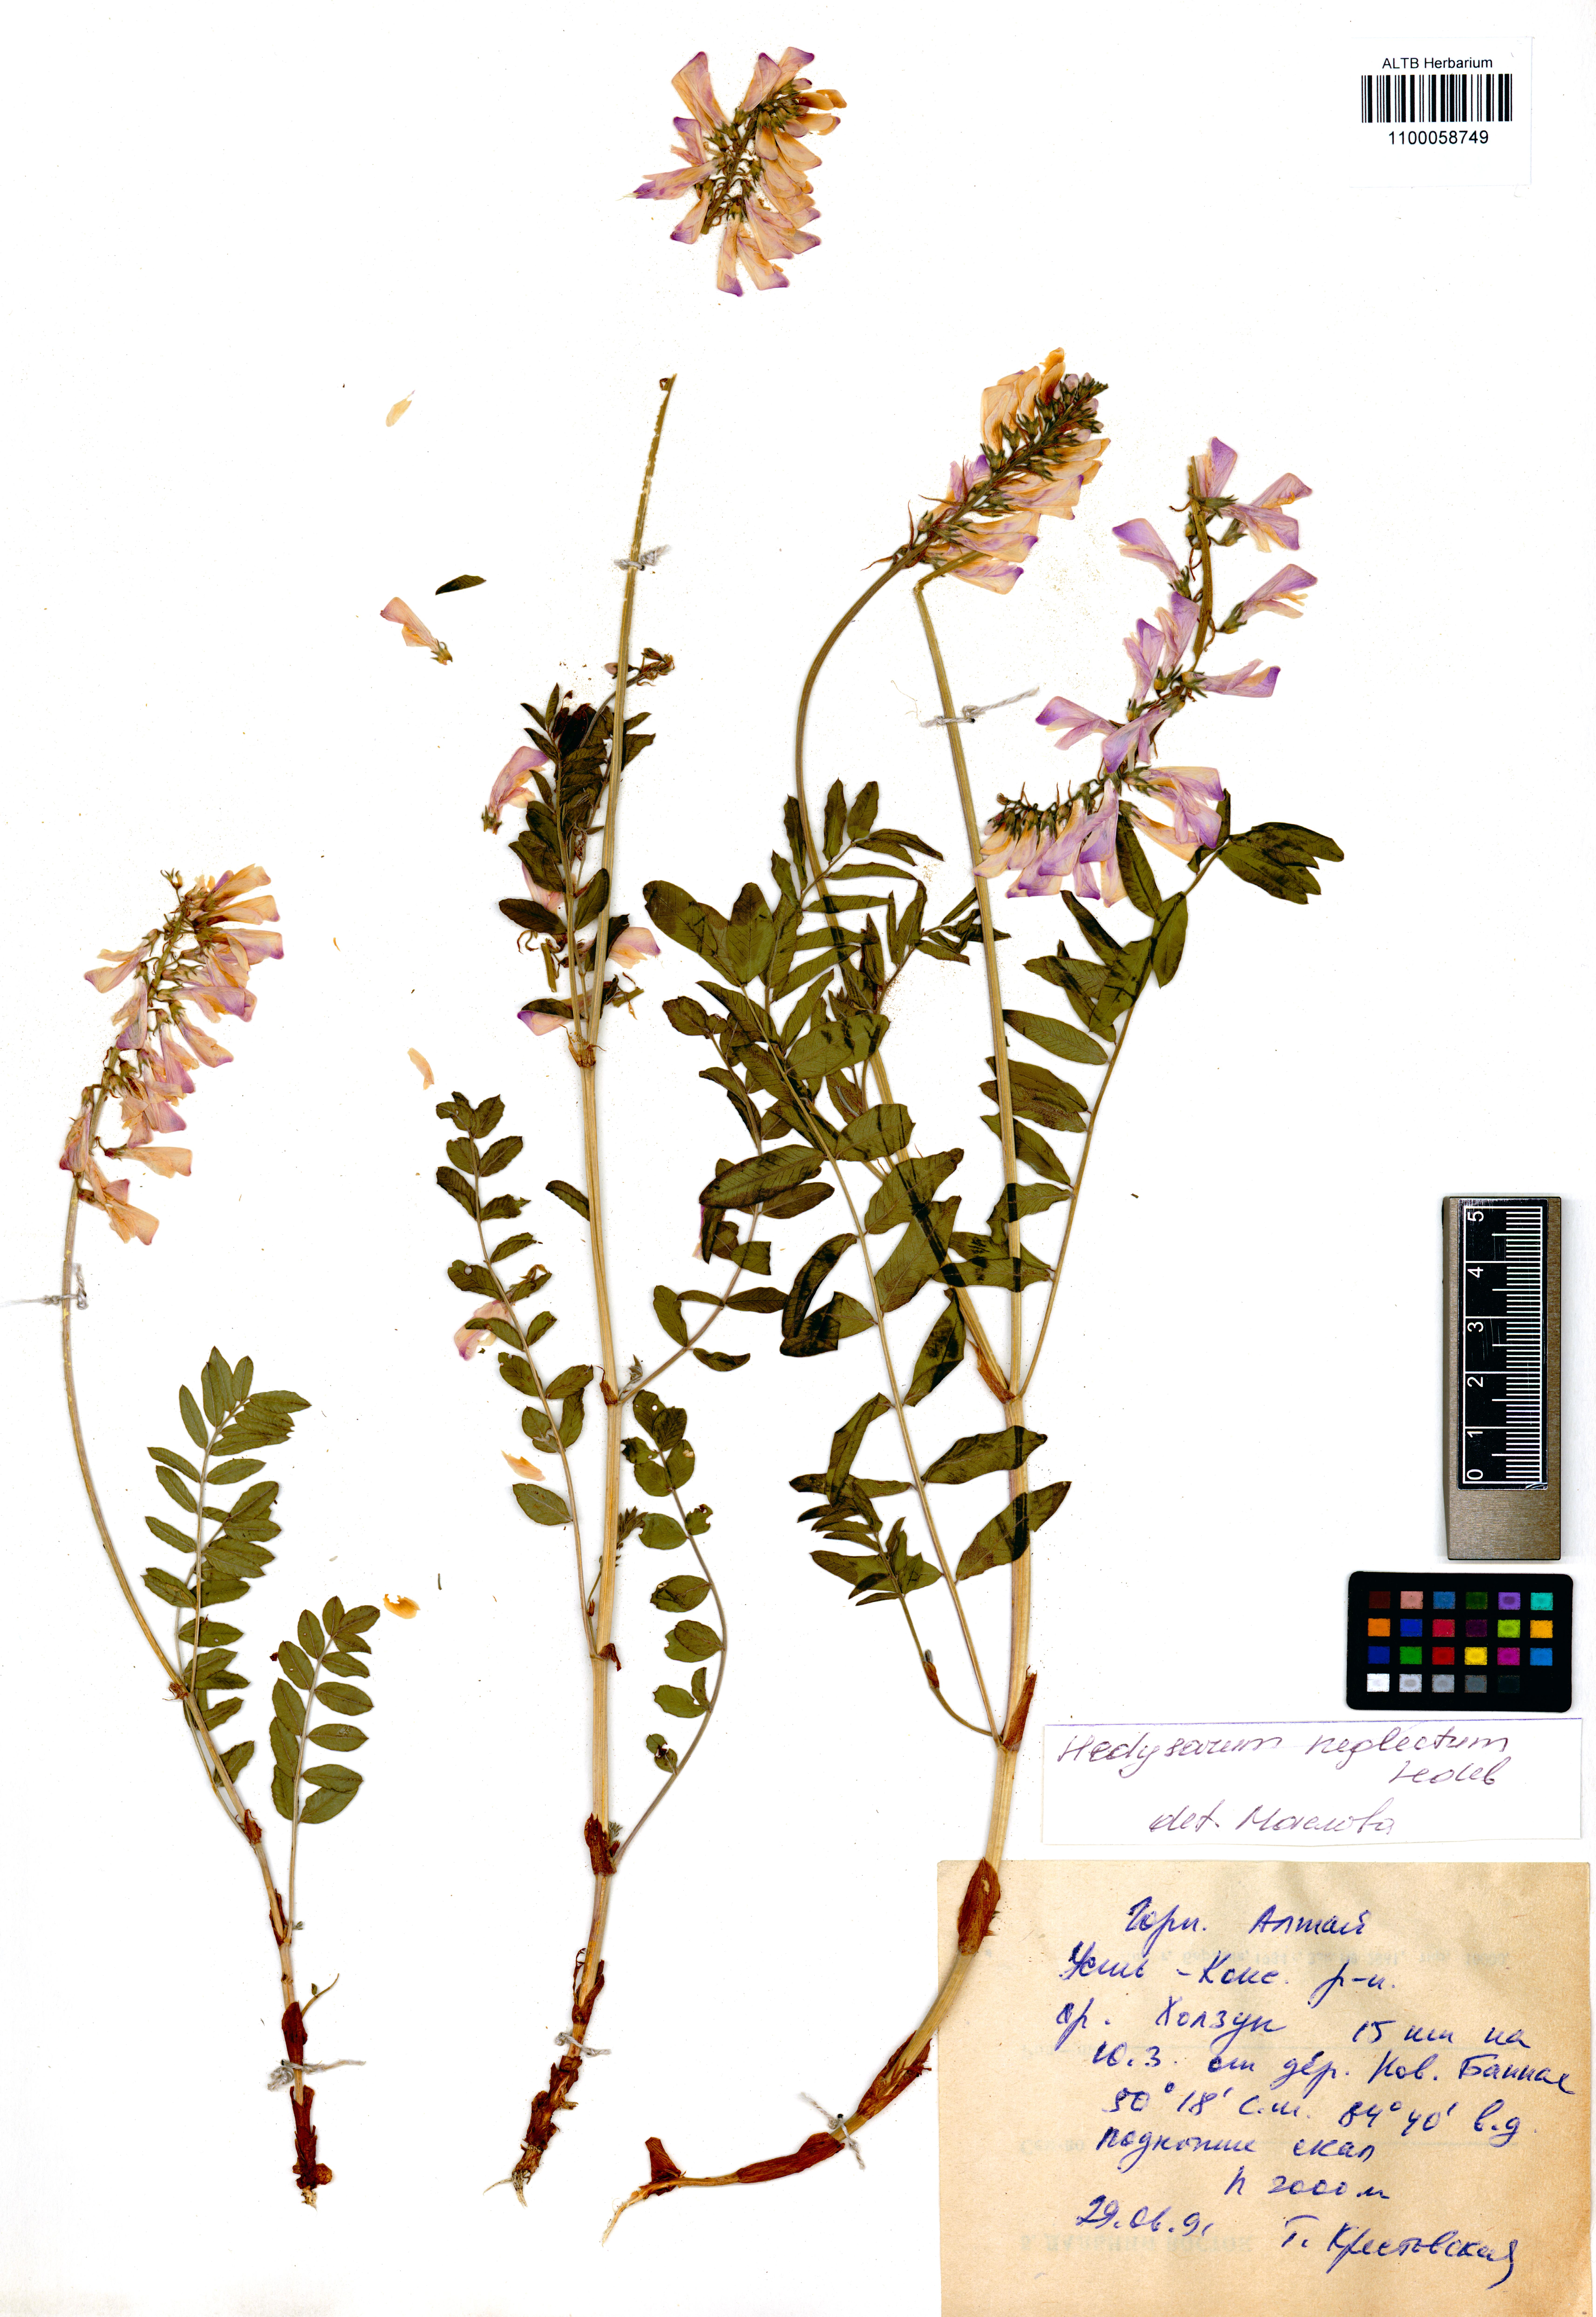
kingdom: Plantae
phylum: Tracheophyta
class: Magnoliopsida
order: Fabales
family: Fabaceae
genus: Hedysarum
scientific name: Hedysarum neglectum
